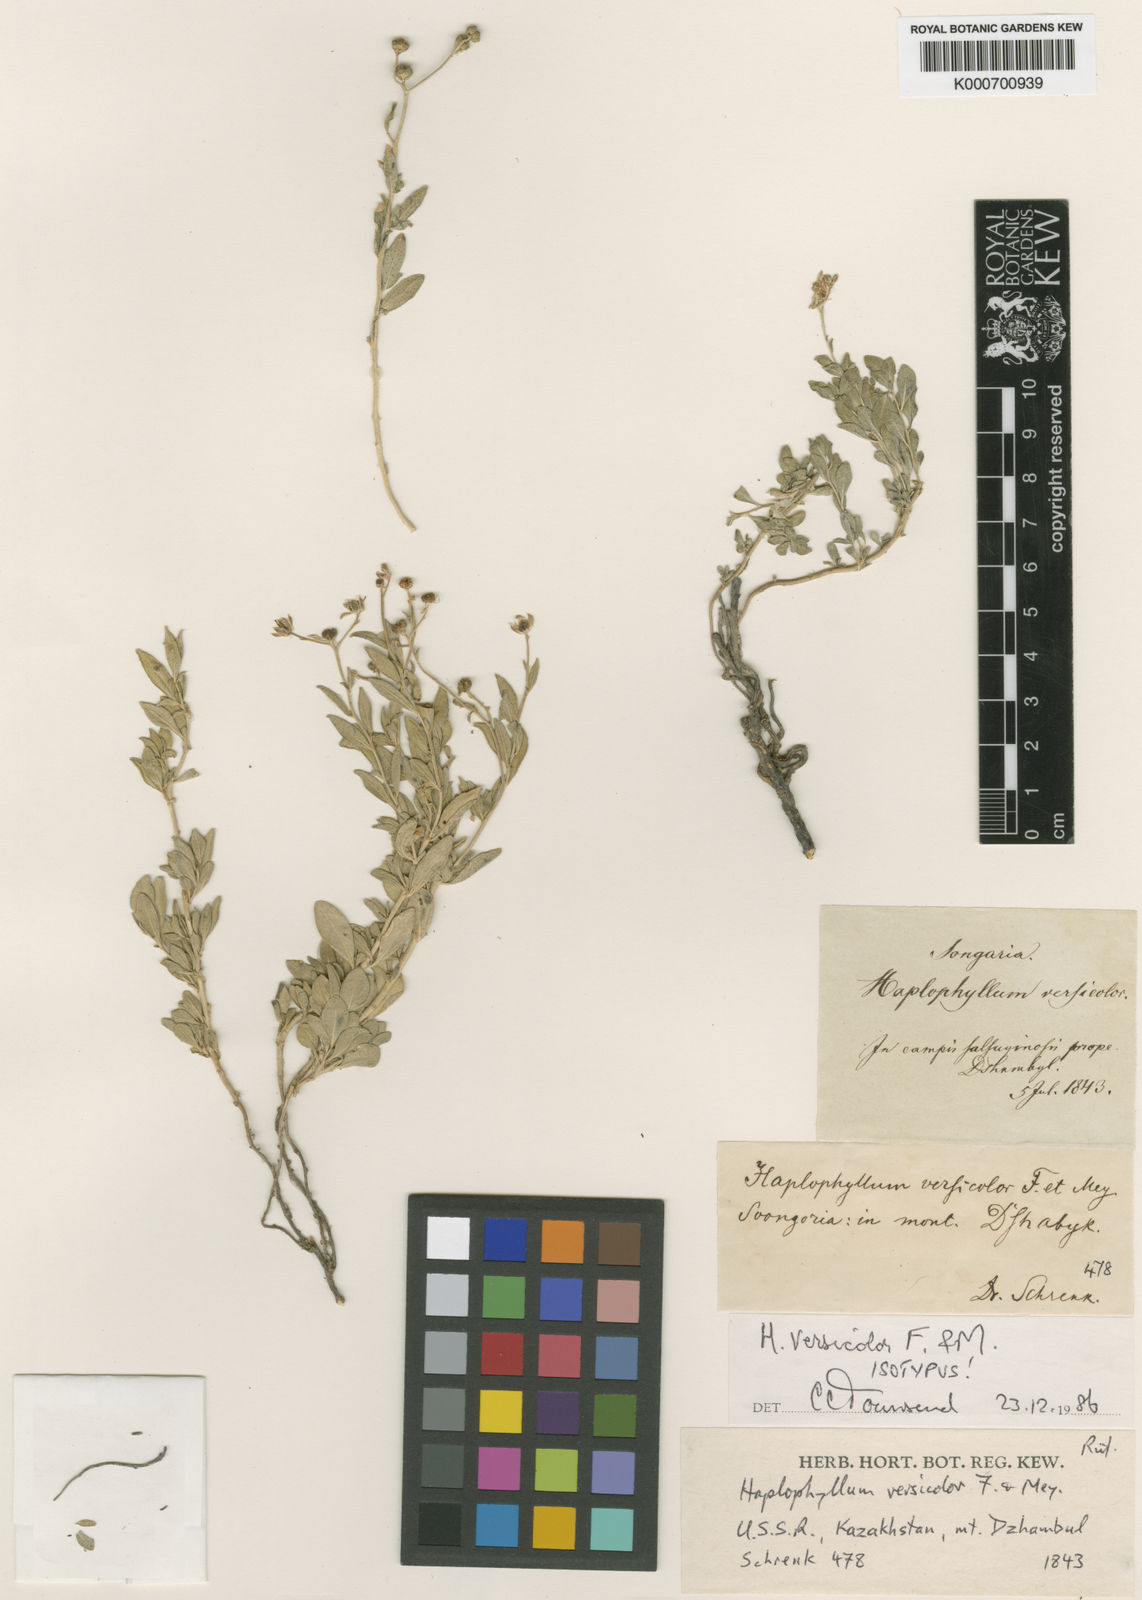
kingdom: Plantae
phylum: Tracheophyta
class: Magnoliopsida
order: Sapindales
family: Rutaceae
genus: Haplophyllum
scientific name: Haplophyllum versicolor
